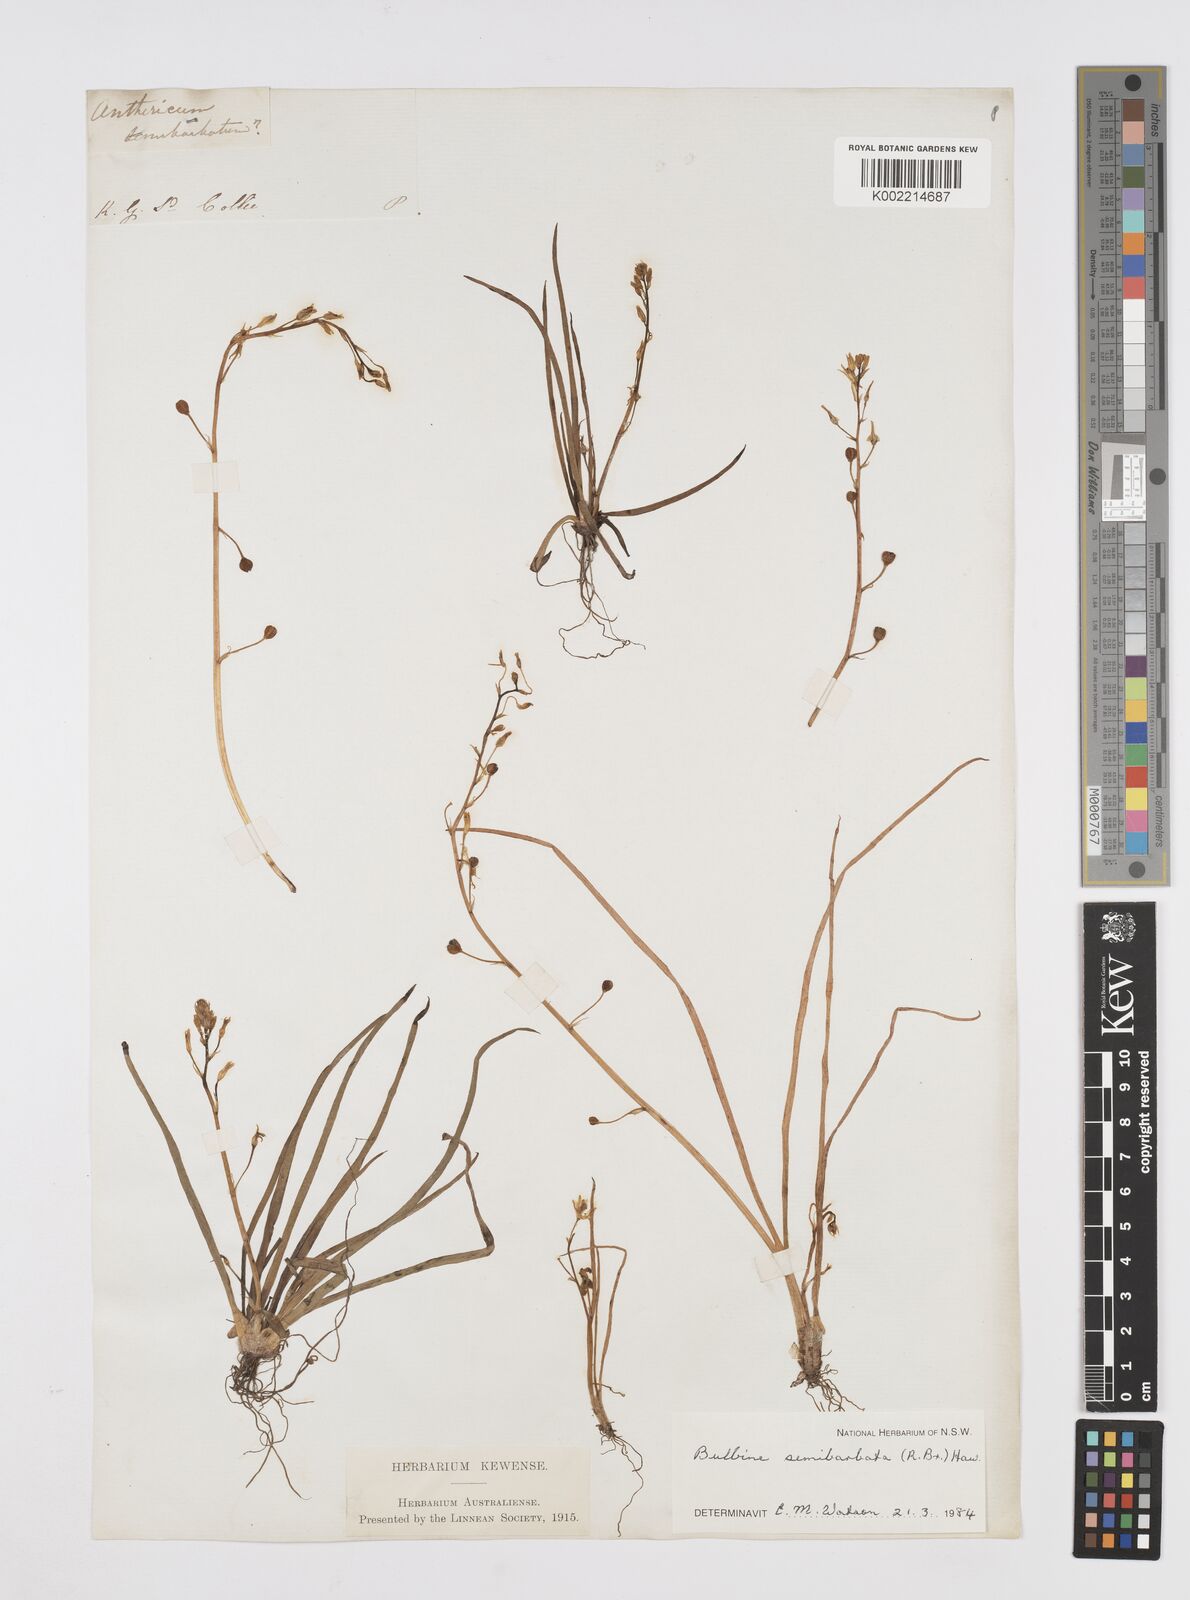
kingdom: Plantae
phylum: Tracheophyta
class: Liliopsida
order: Asparagales
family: Asphodelaceae
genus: Bulbine
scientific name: Bulbine semibarbata
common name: Leek lily
